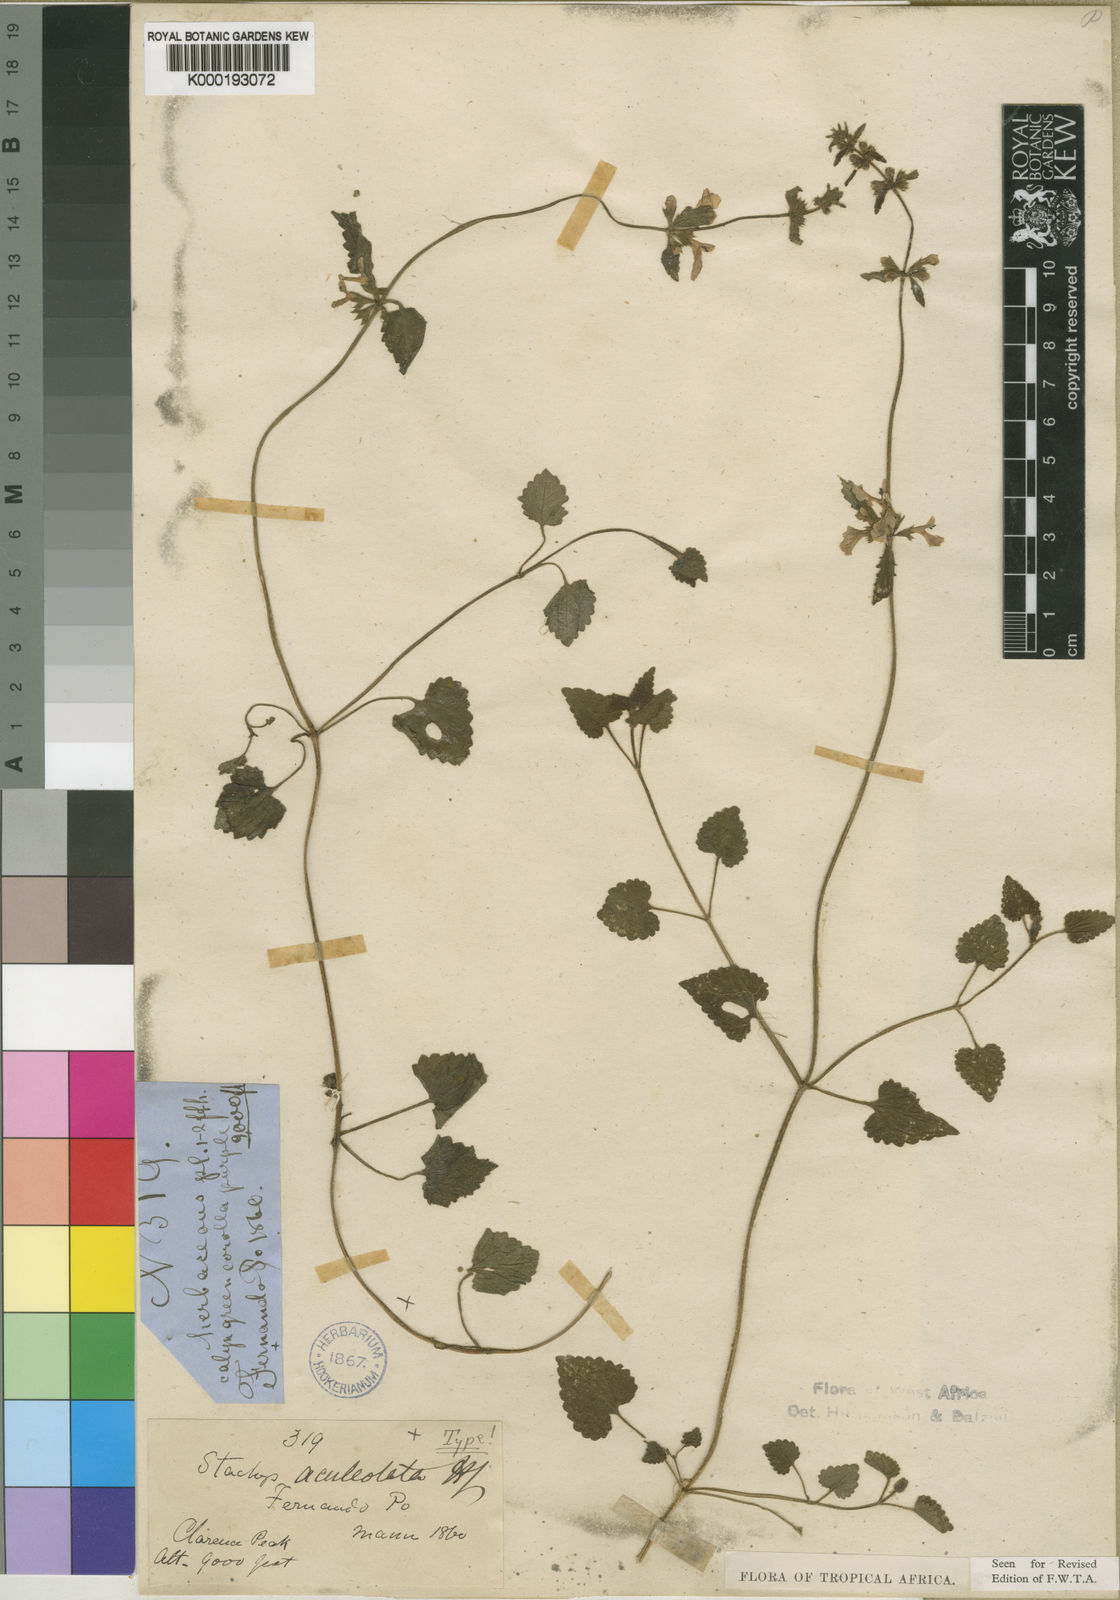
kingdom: Plantae
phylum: Tracheophyta
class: Magnoliopsida
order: Lamiales
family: Lamiaceae
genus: Stachys
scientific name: Stachys aculeolata
